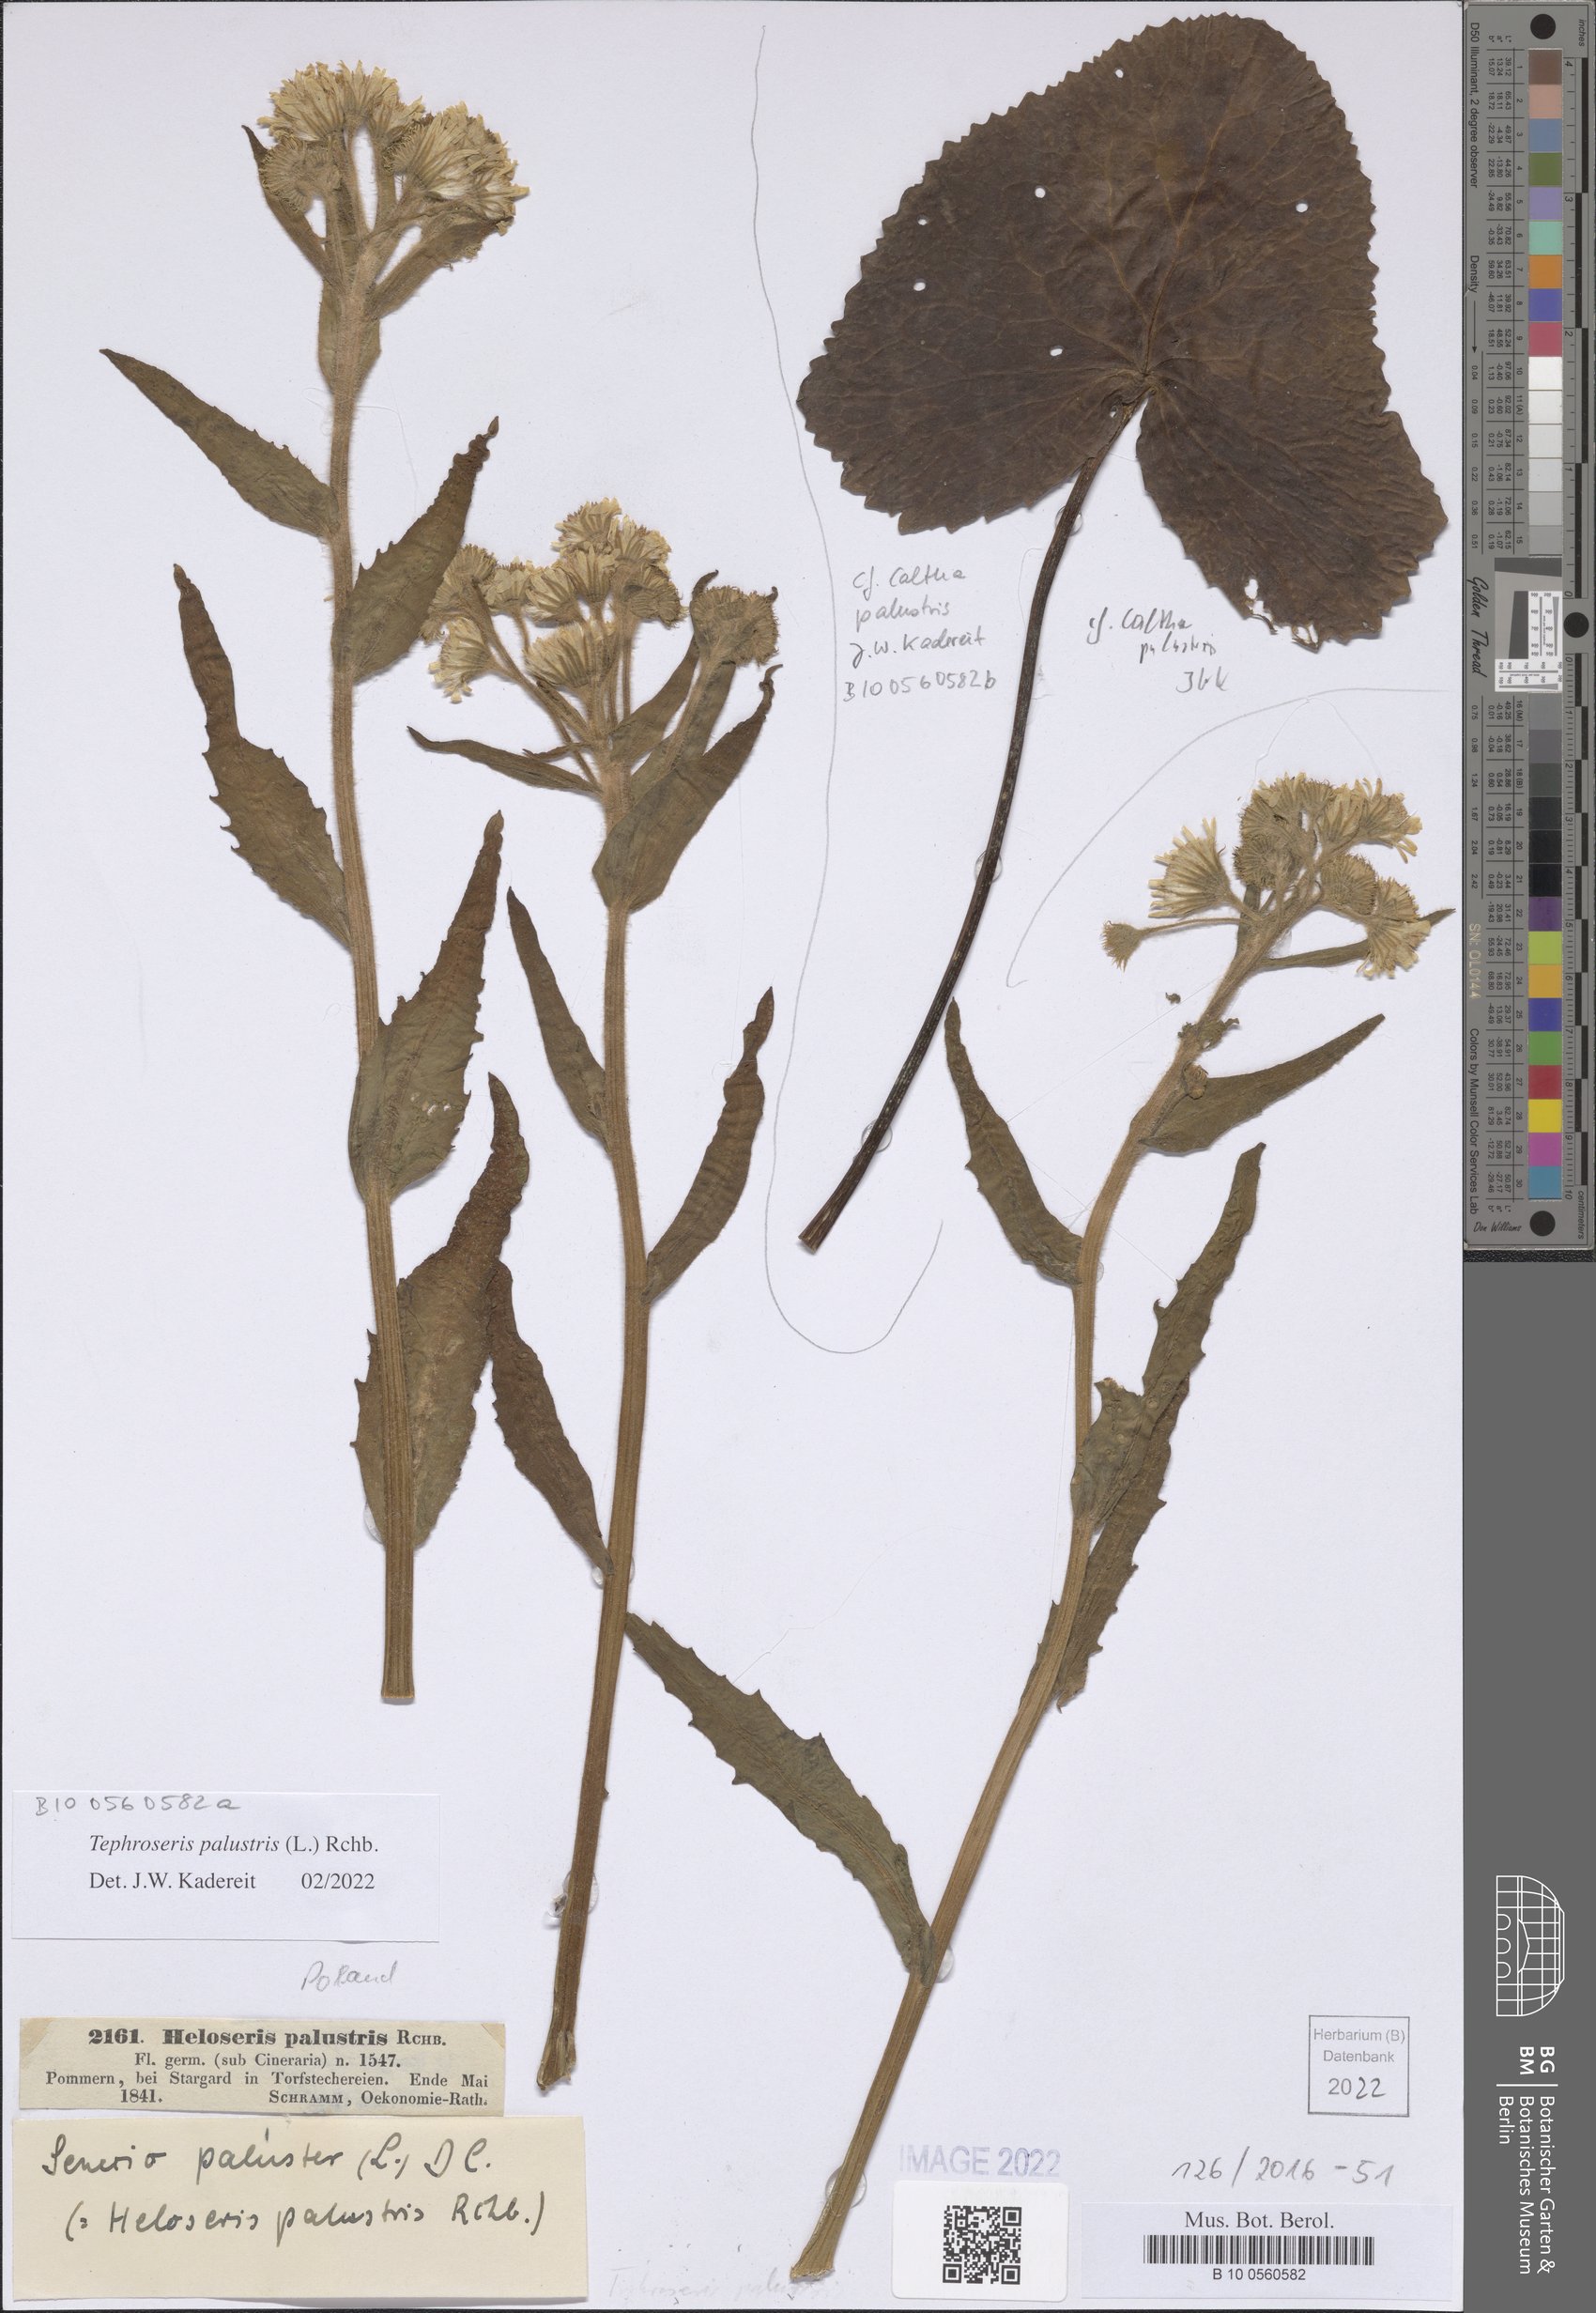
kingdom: Plantae
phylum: Tracheophyta
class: Magnoliopsida
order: Asterales
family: Asteraceae
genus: Tephroseris
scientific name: Tephroseris palustris
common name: Marsh fleawort
